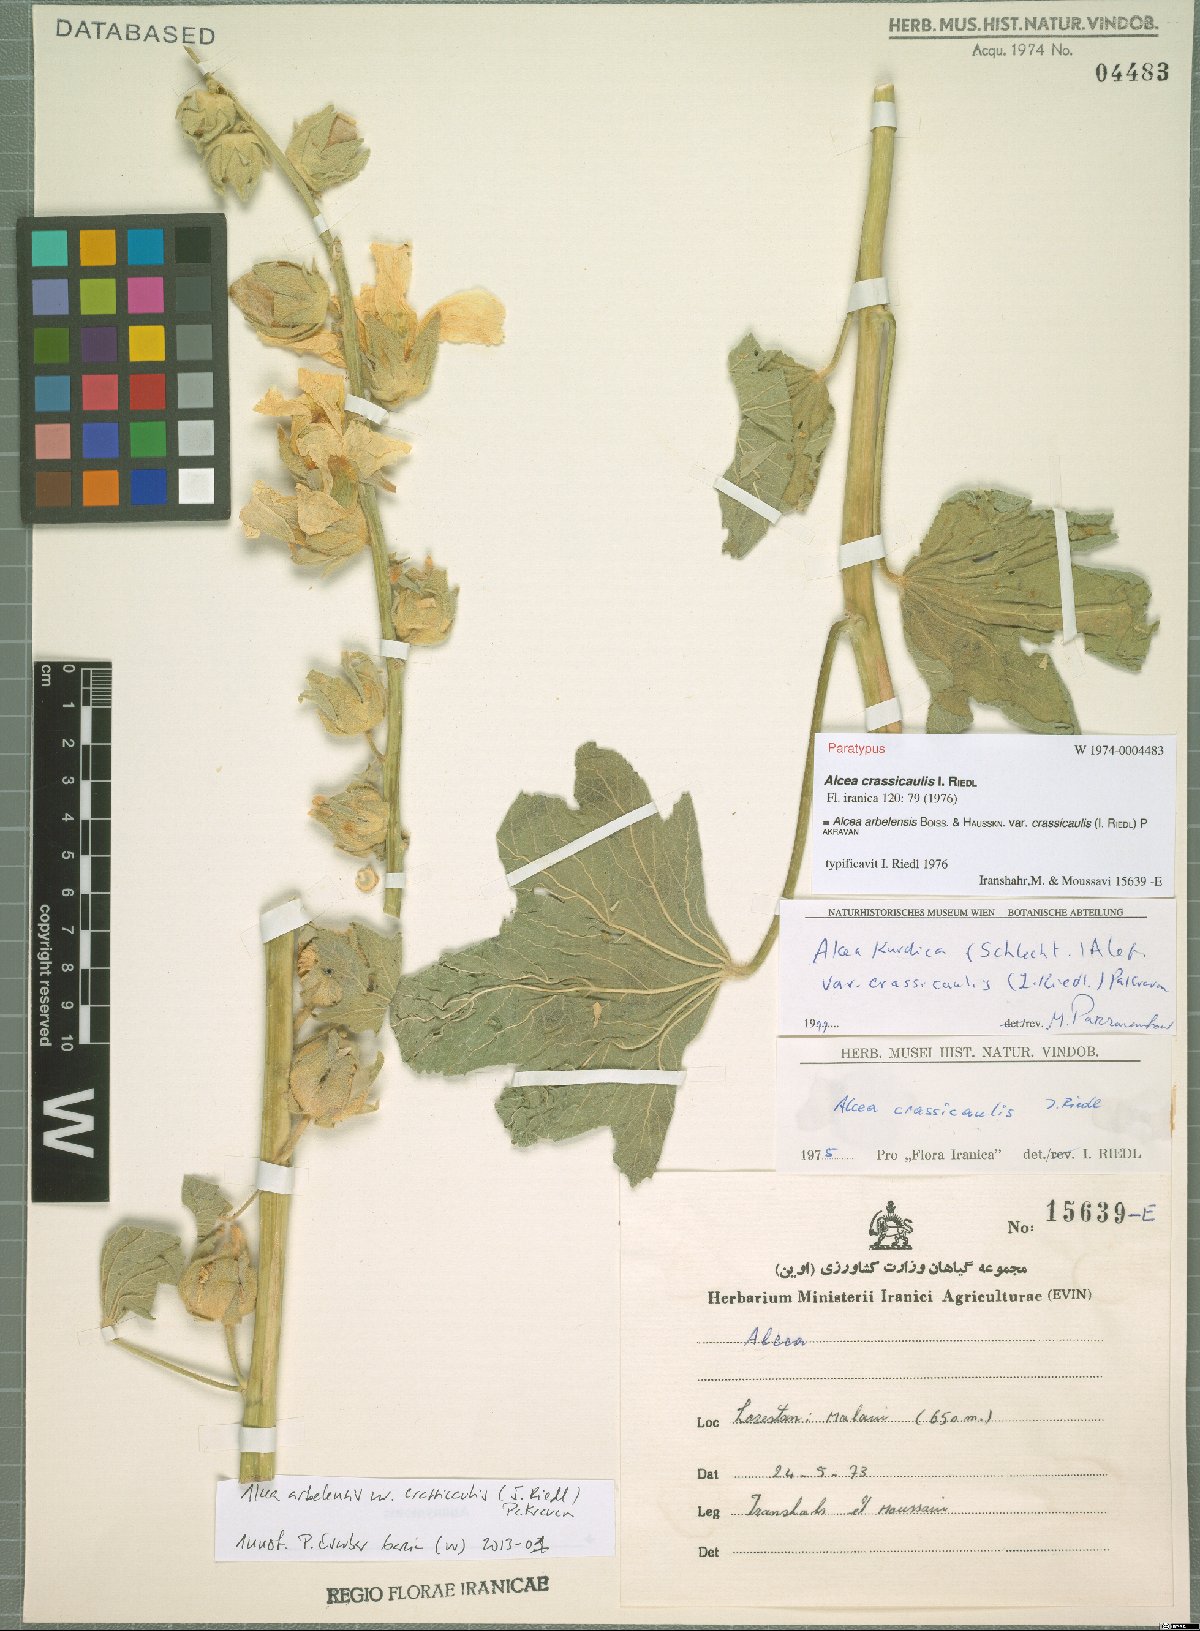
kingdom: Plantae
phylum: Tracheophyta
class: Magnoliopsida
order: Malvales
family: Malvaceae
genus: Alcea
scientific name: Alcea arbelensis
